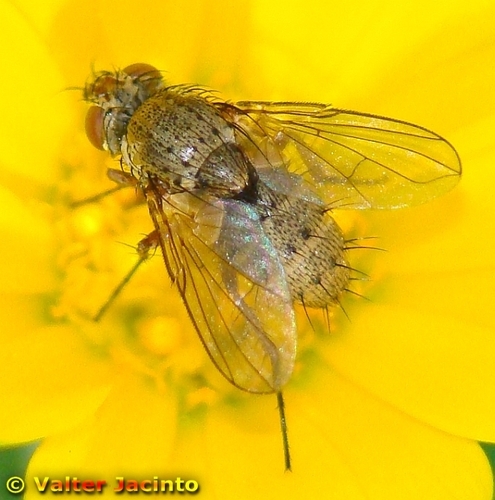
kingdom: Animalia
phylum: Arthropoda
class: Insecta
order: Diptera
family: Tachinidae
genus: Siphona
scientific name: Siphona geniculata
